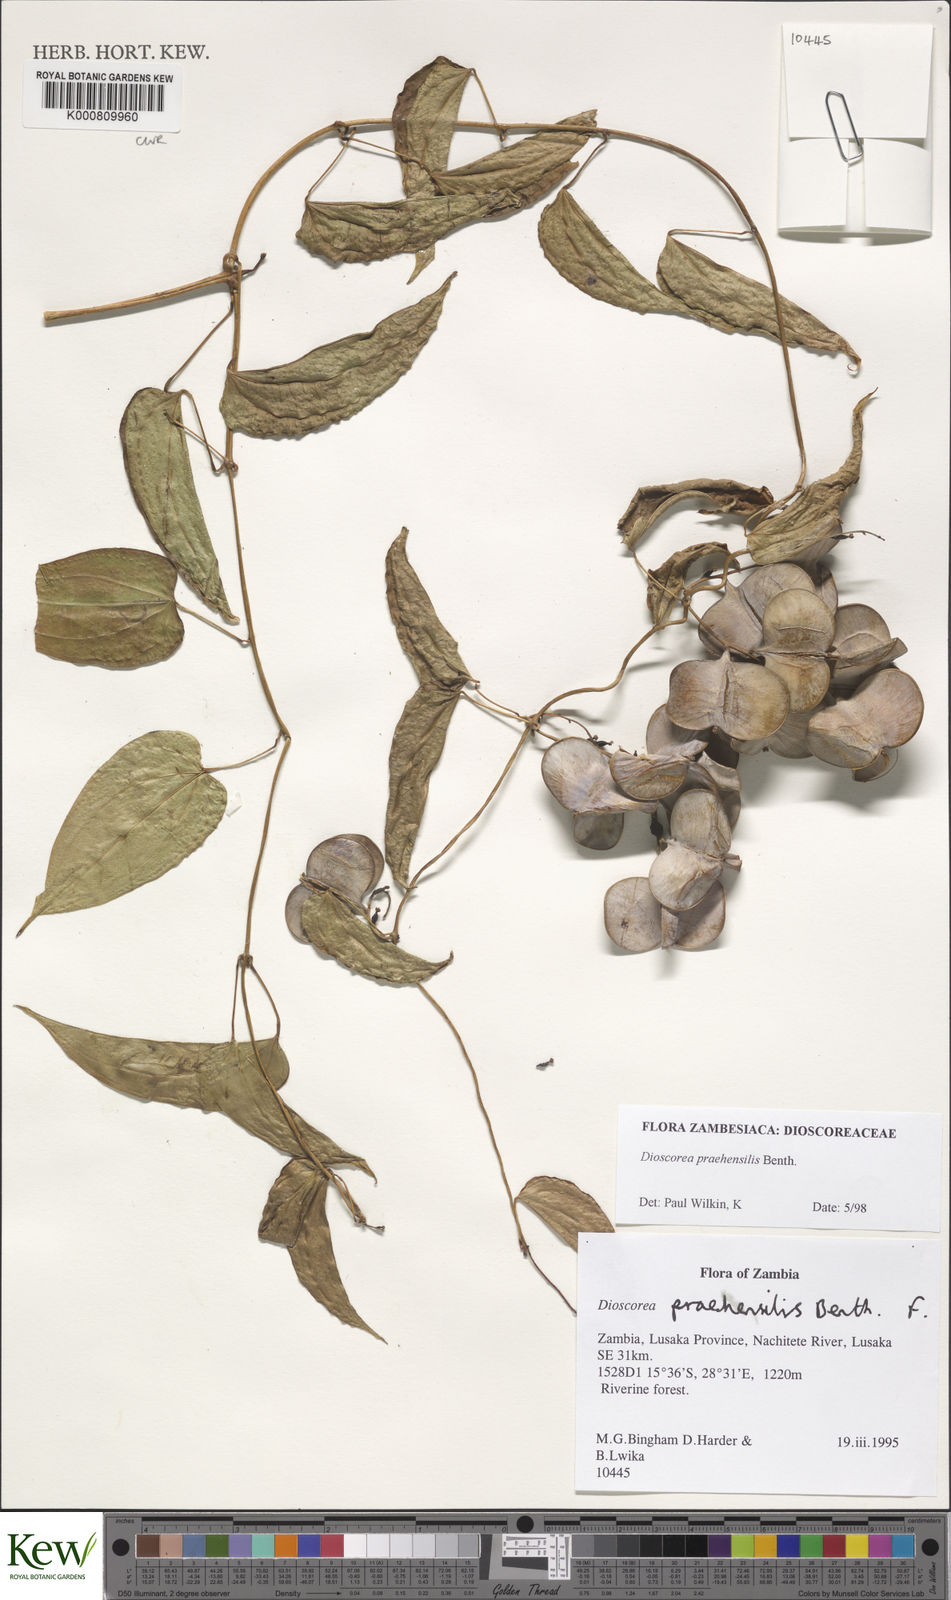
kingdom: Plantae
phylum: Tracheophyta
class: Liliopsida
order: Dioscoreales
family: Dioscoreaceae
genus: Dioscorea
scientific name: Dioscorea praehensilis
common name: Bush yam
